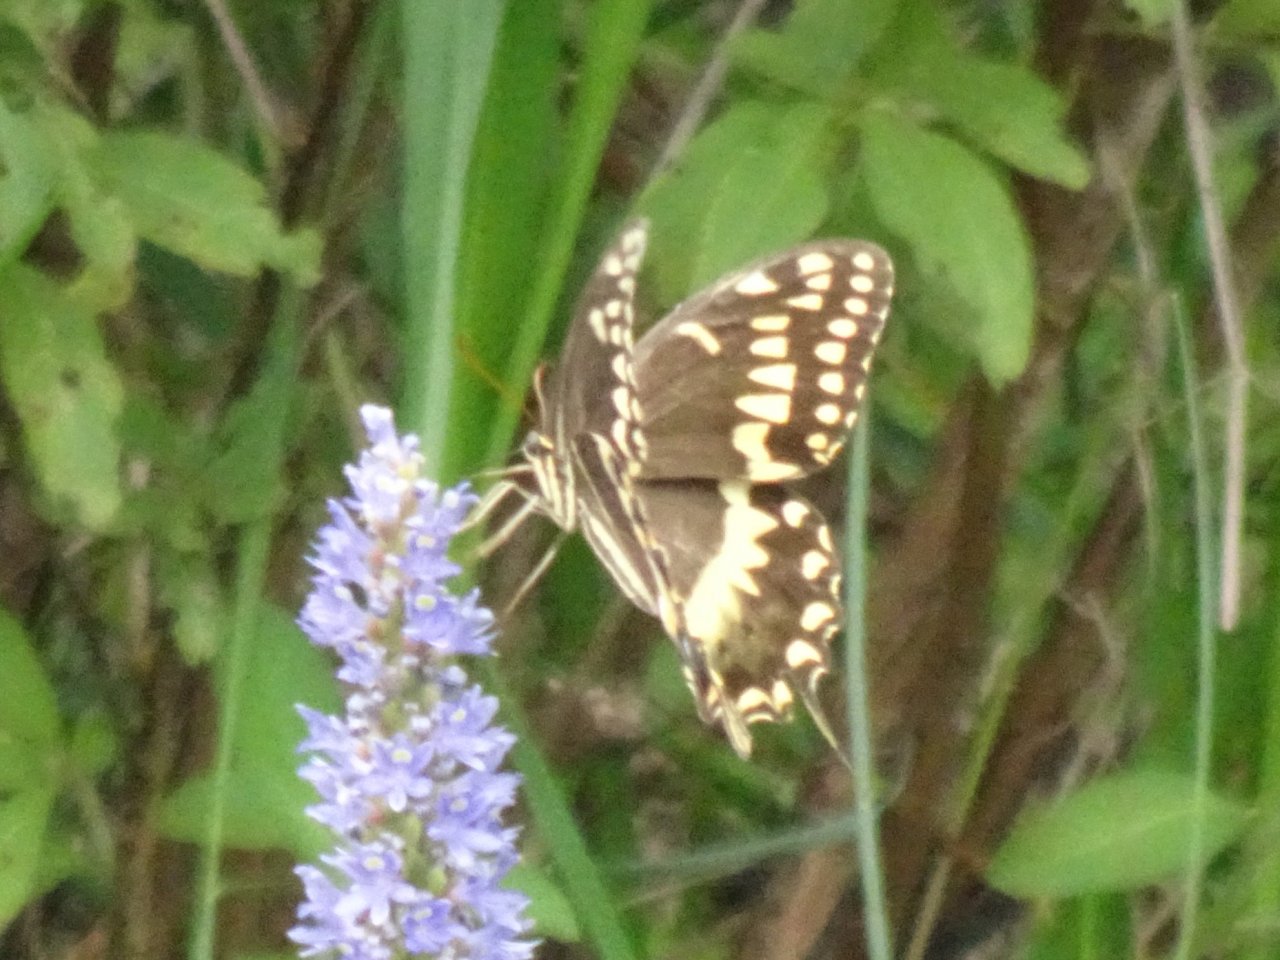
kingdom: Animalia
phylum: Arthropoda
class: Insecta
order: Lepidoptera
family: Papilionidae
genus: Pterourus
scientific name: Pterourus palamedes
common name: Palamedes Swallowtail
